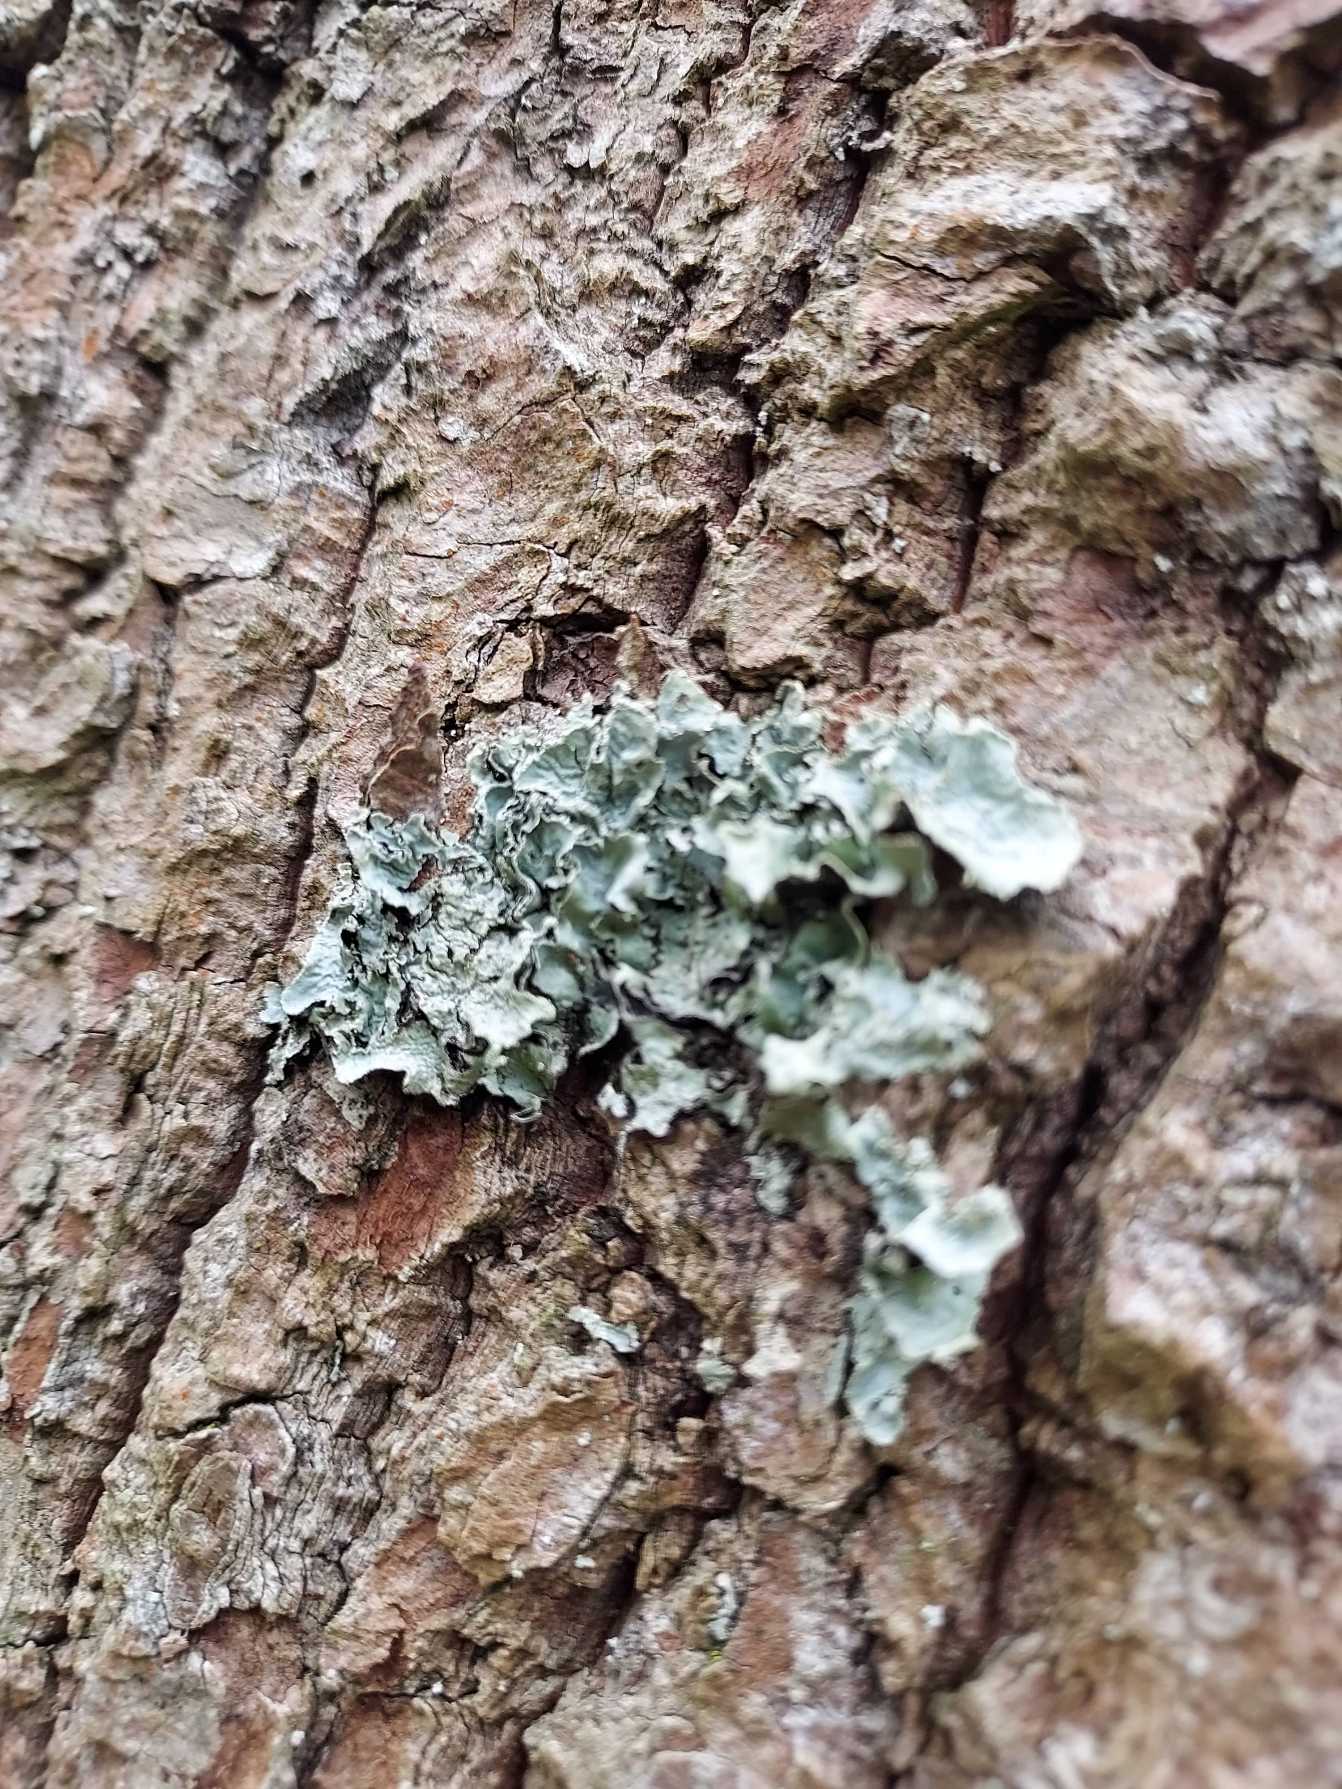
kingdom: Fungi
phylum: Ascomycota
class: Lecanoromycetes
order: Lecanorales
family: Parmeliaceae
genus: Parmelia
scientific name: Parmelia sulcata
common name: Rynket skållav
